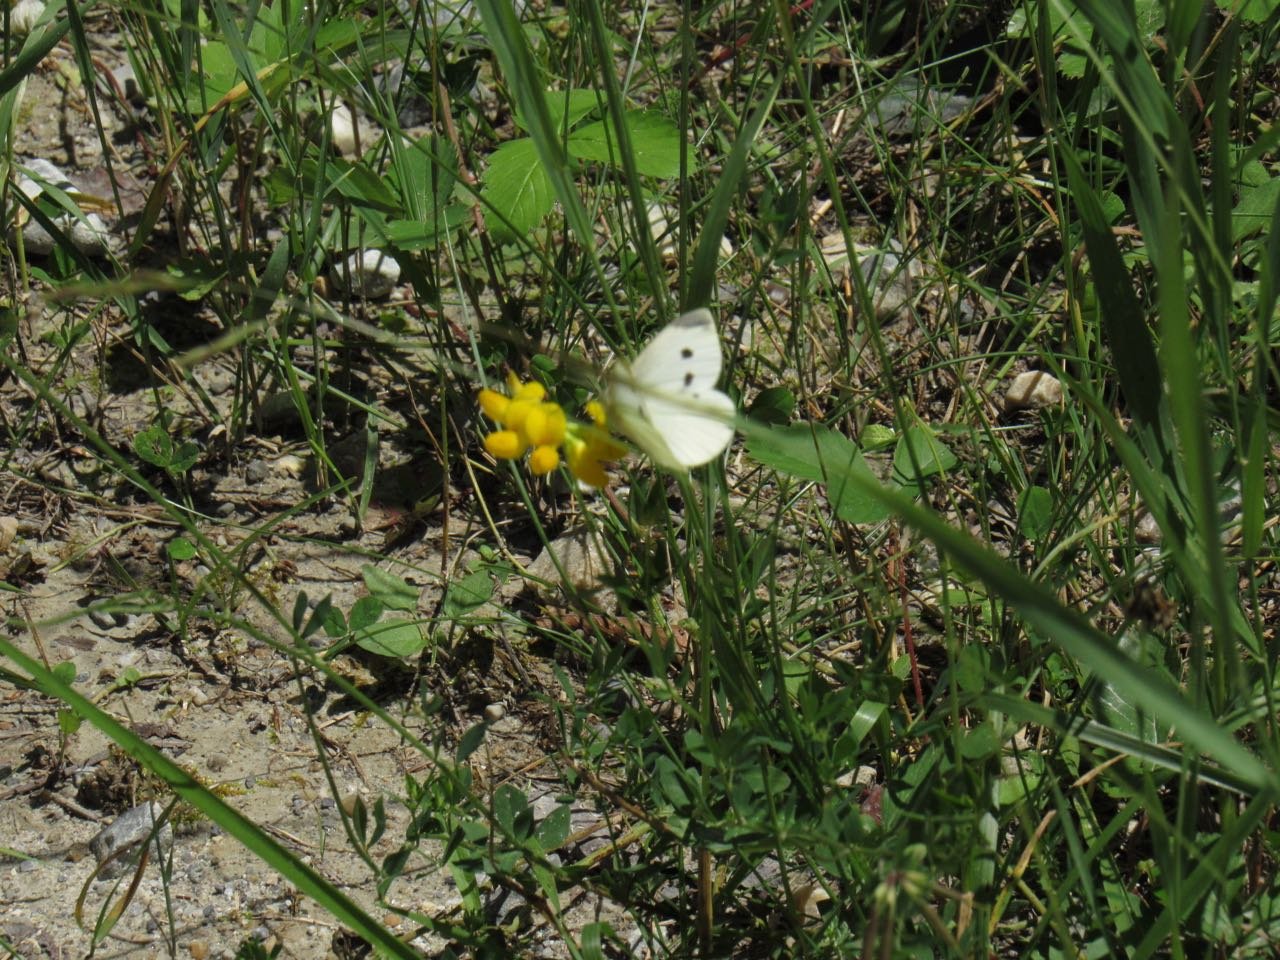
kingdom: Animalia
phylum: Arthropoda
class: Insecta
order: Lepidoptera
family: Pieridae
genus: Pieris
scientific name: Pieris rapae
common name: Cabbage White
